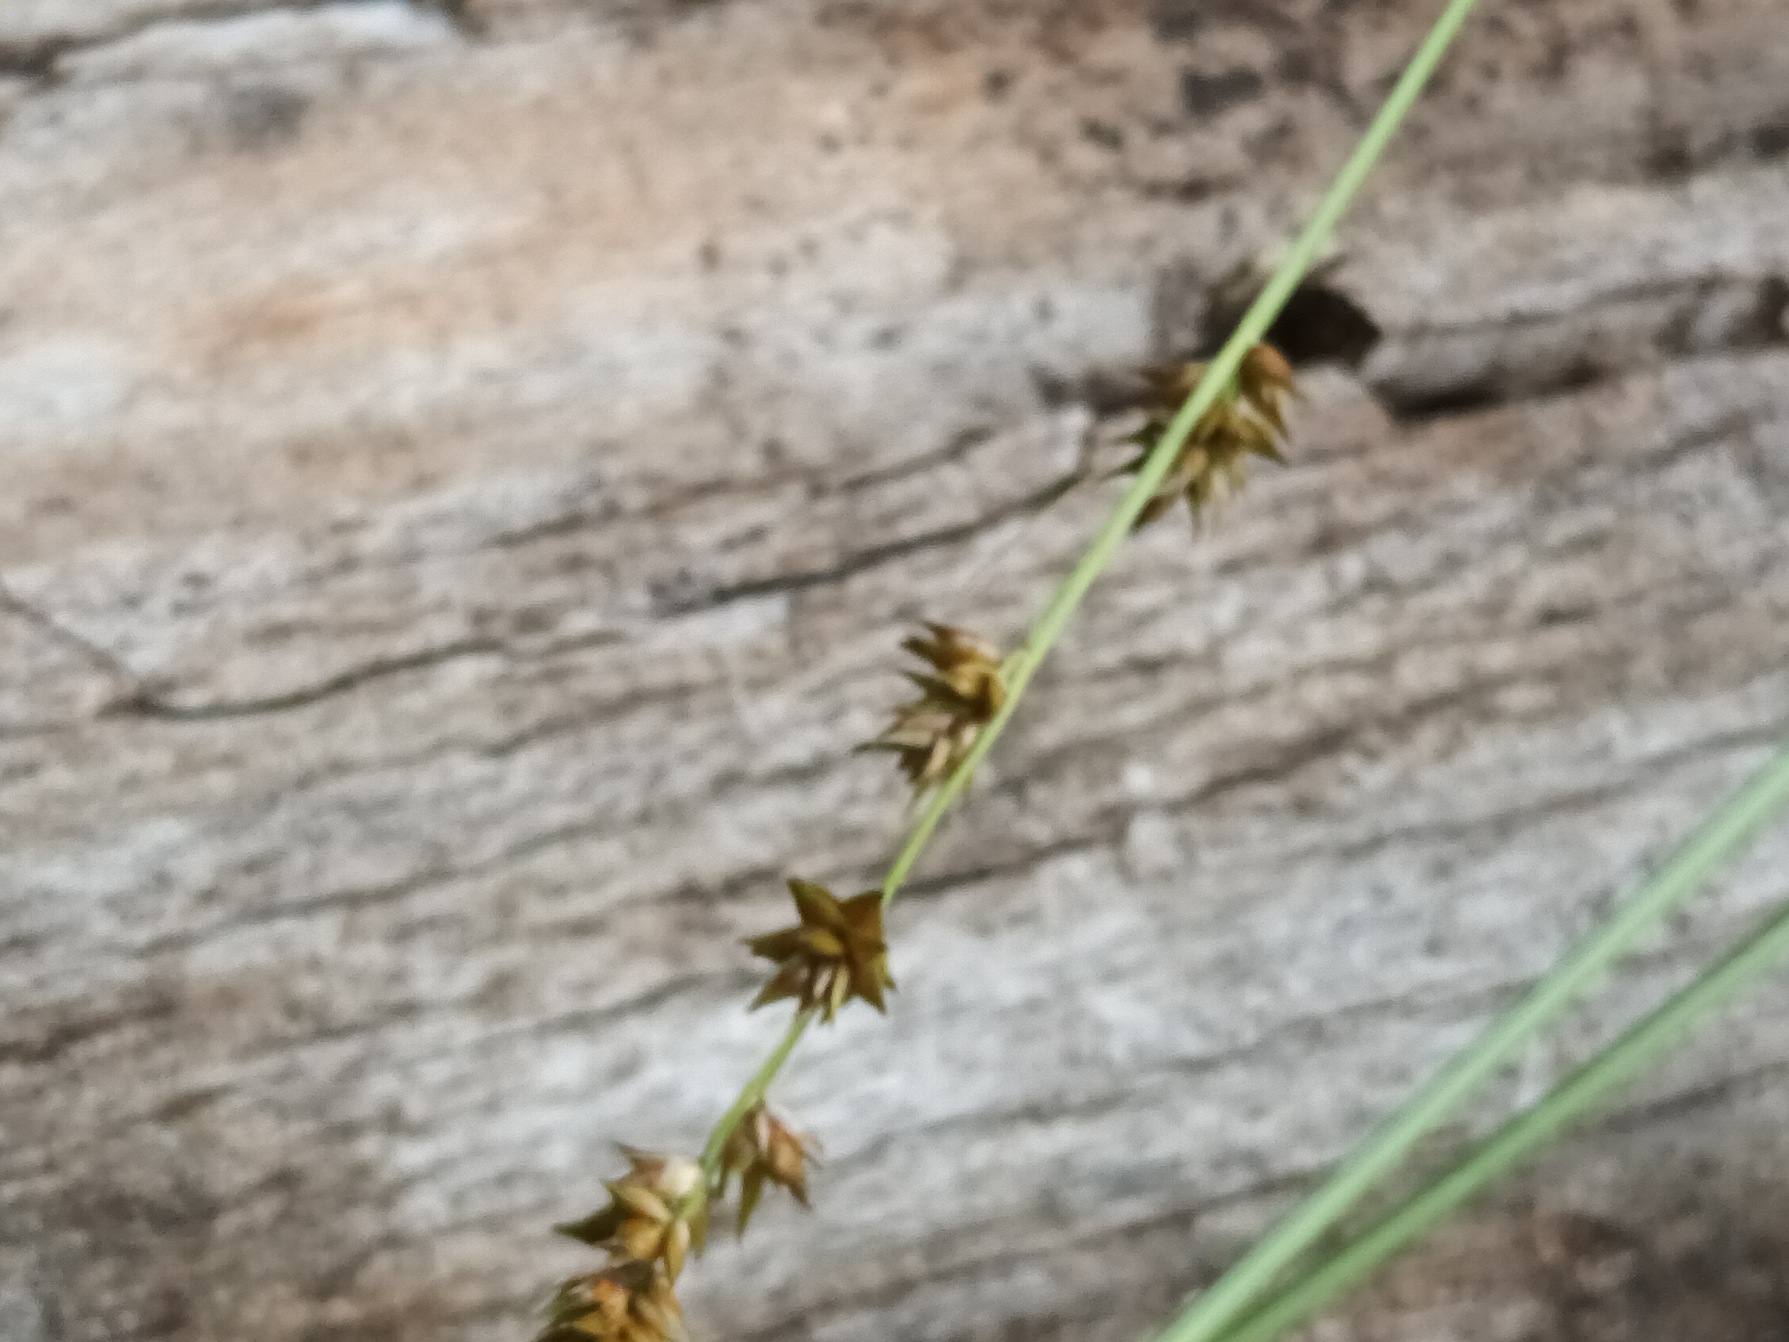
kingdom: Plantae
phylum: Tracheophyta
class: Liliopsida
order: Poales
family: Cyperaceae
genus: Carex
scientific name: Carex divulsa
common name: Mellembrudt star
